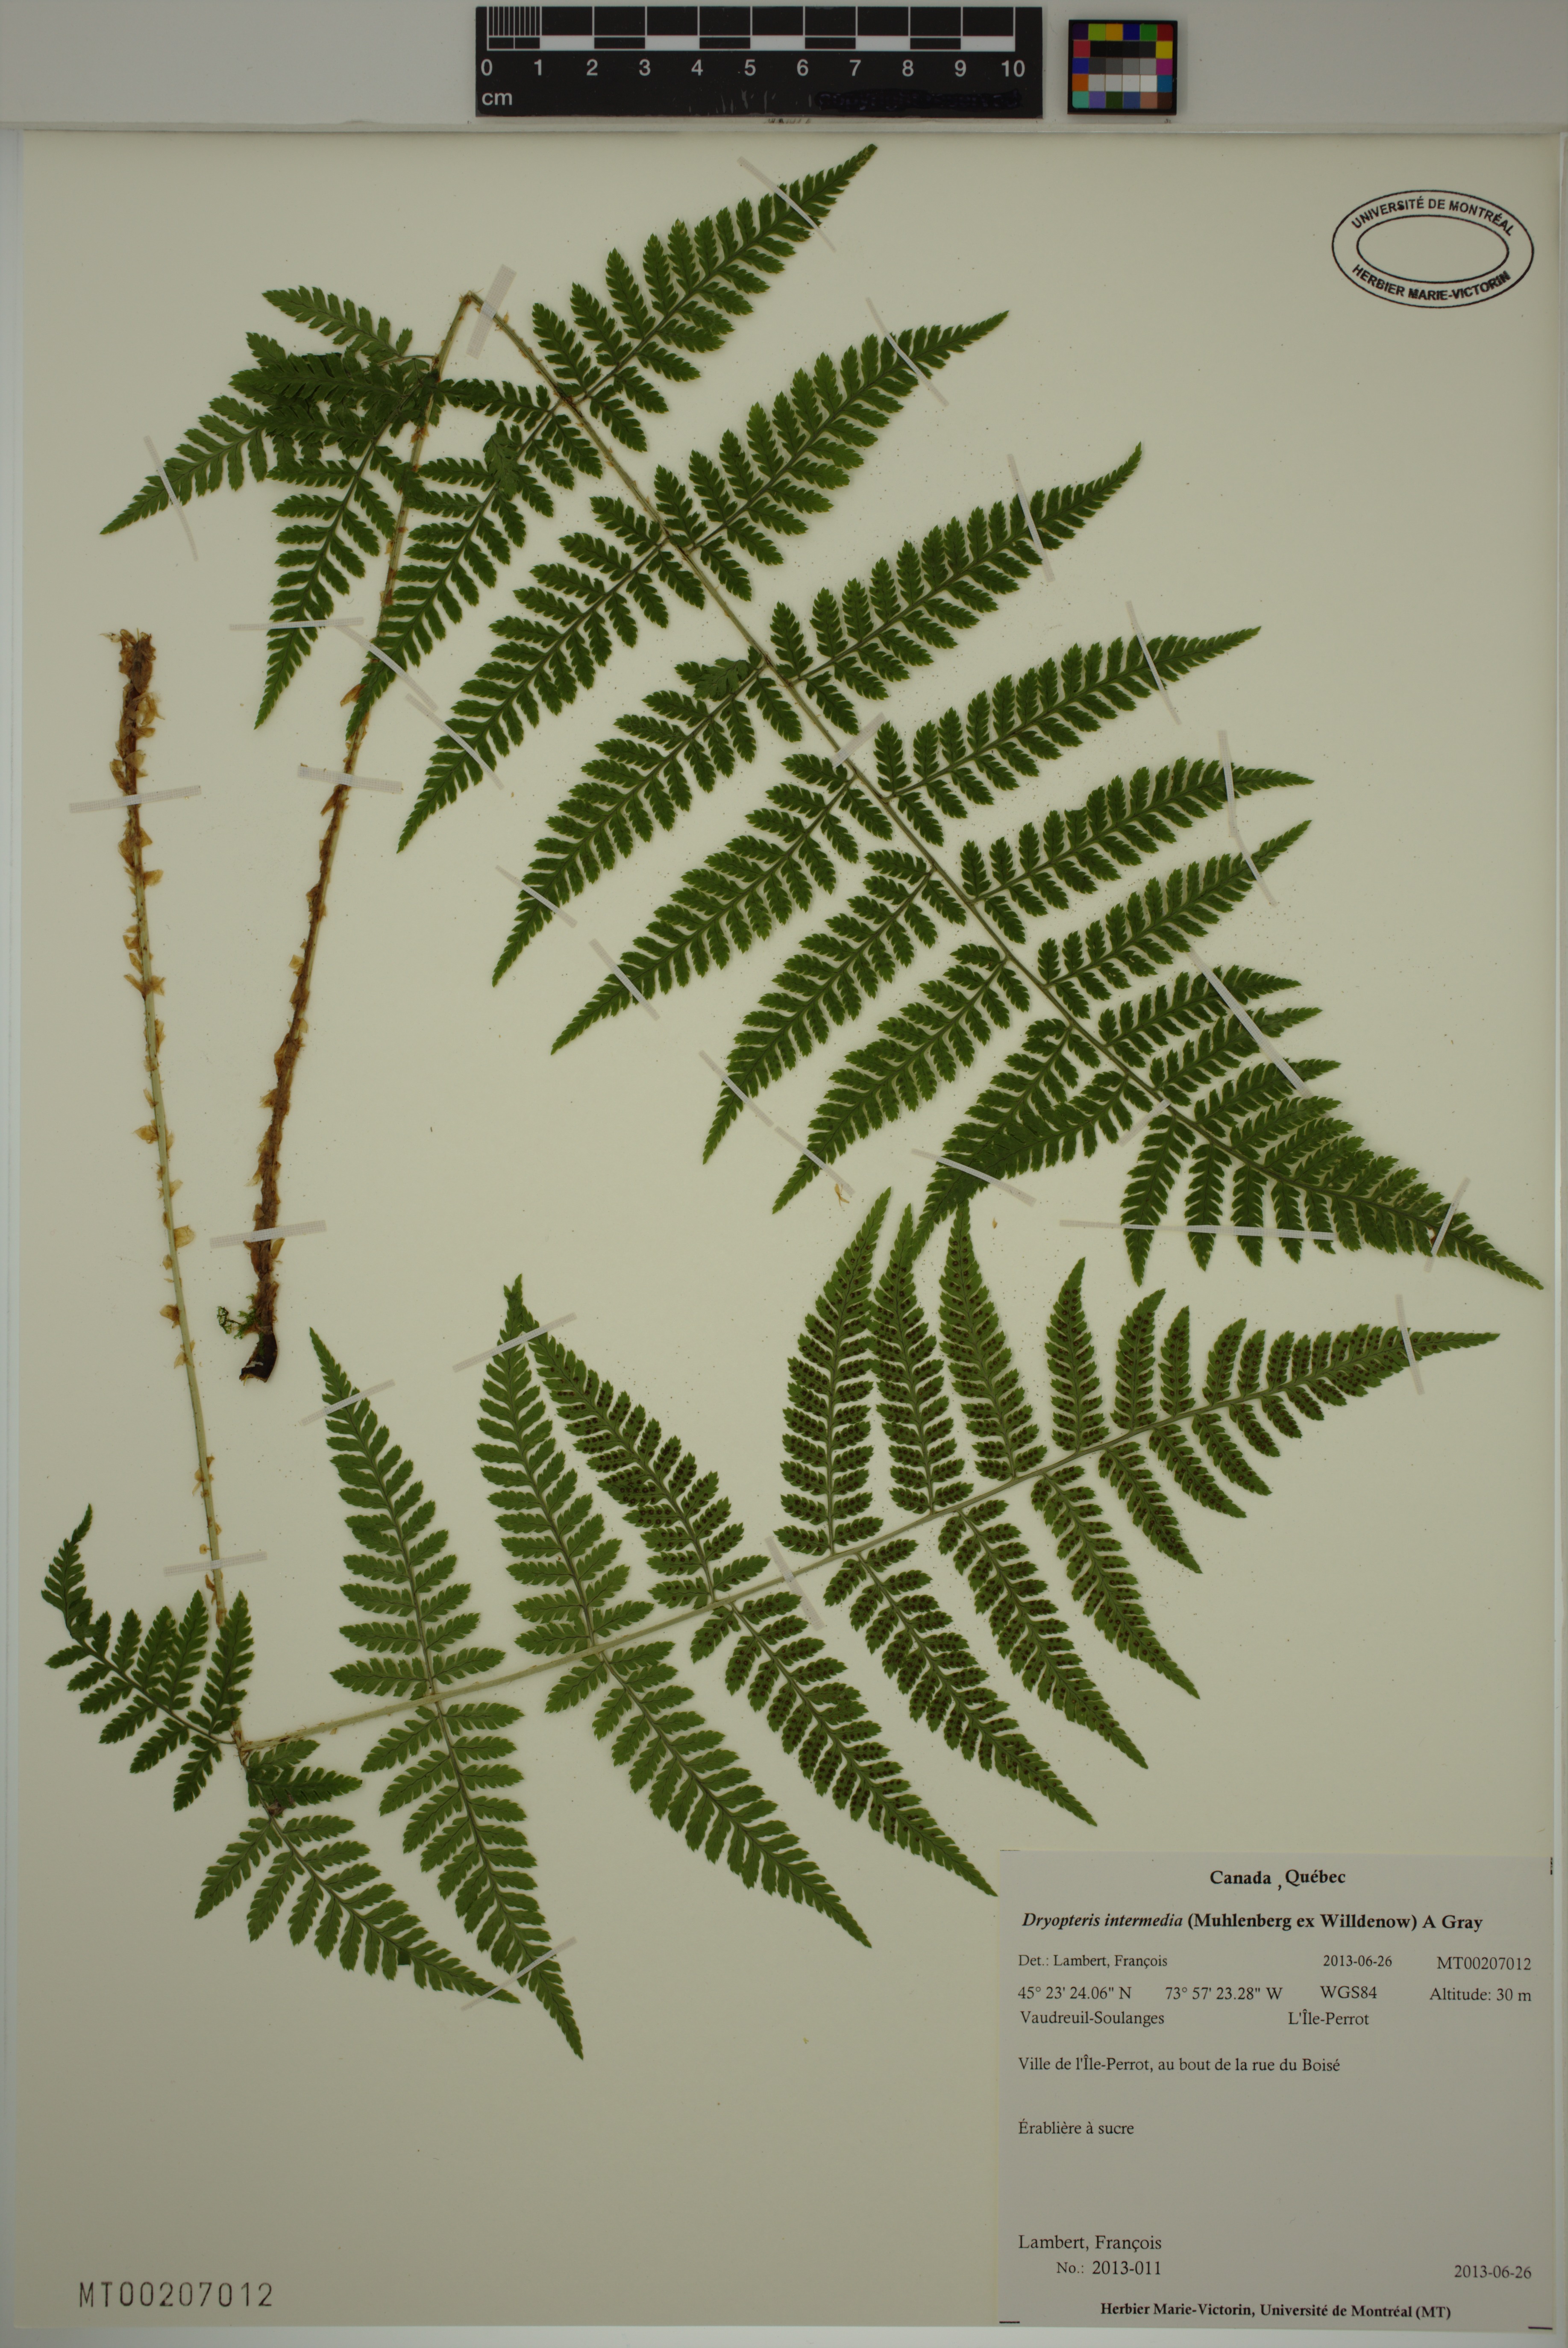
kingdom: Plantae
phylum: Tracheophyta
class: Polypodiopsida
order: Polypodiales
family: Dryopteridaceae
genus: Dryopteris
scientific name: Dryopteris intermedia
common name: Evergreen wood fern
